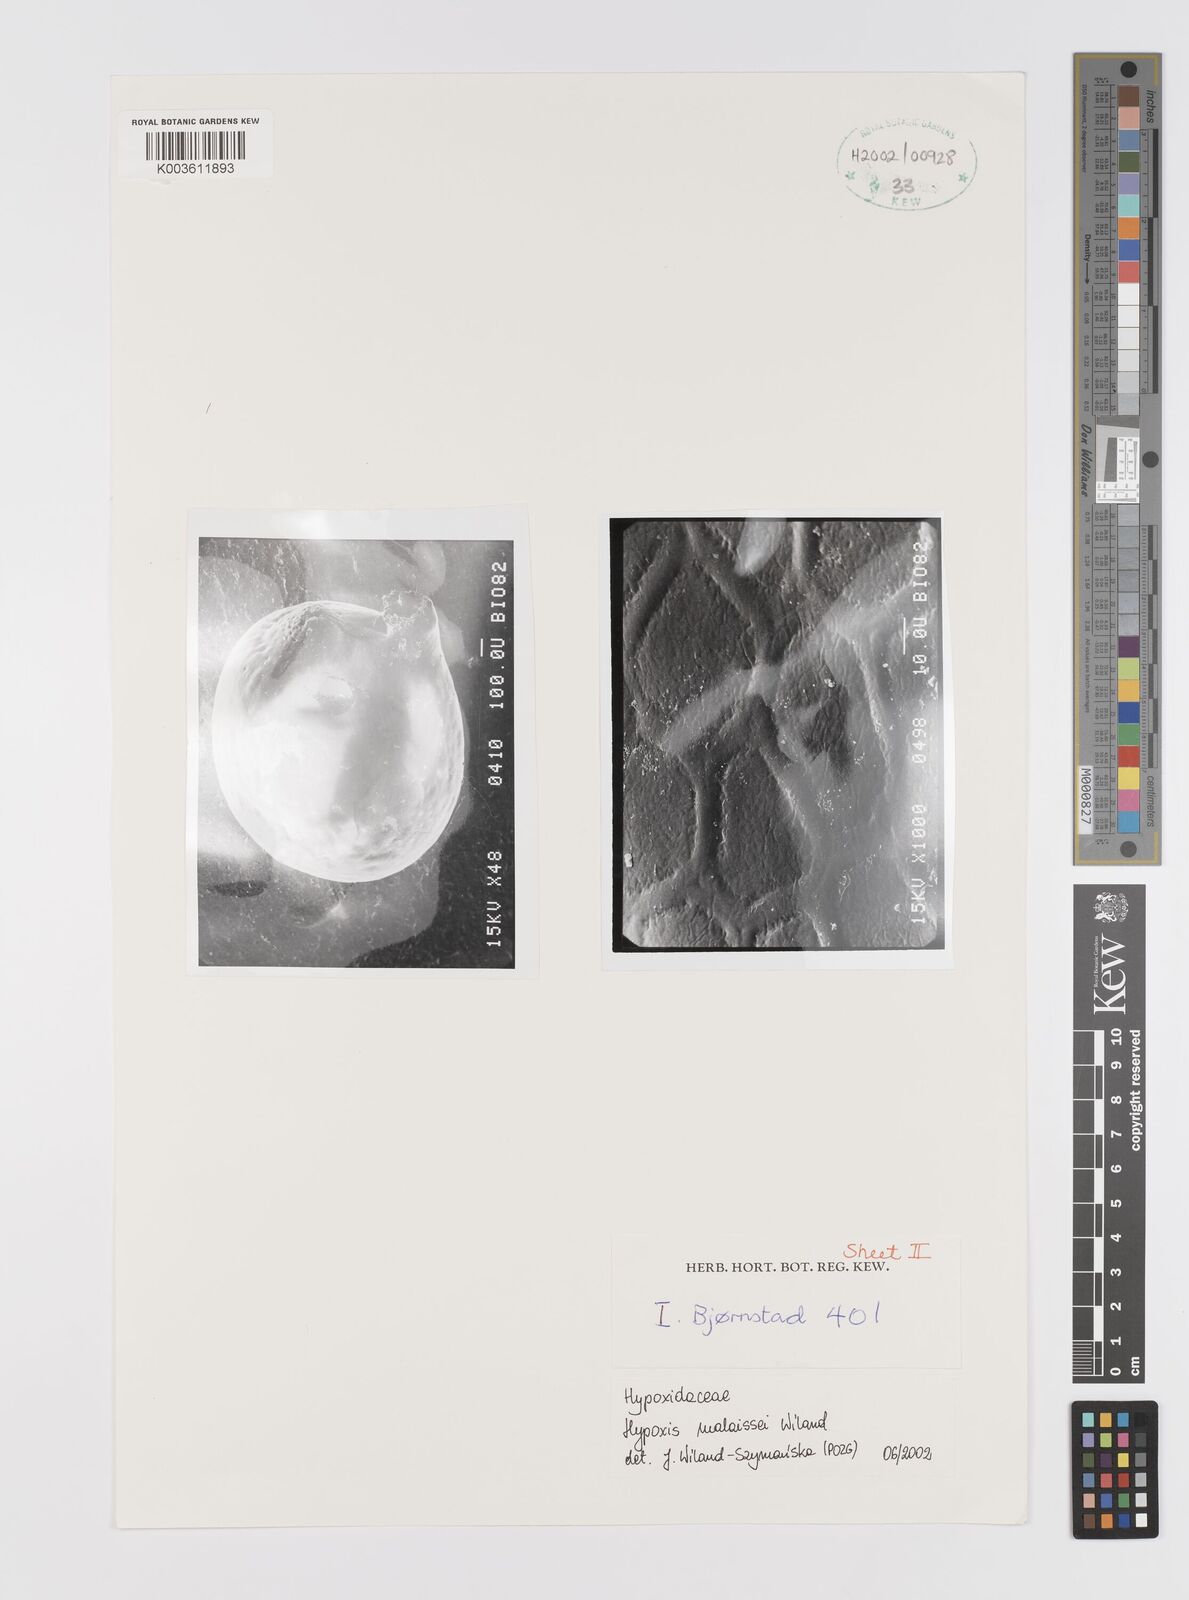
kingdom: Plantae
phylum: Tracheophyta
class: Liliopsida
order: Asparagales
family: Hypoxidaceae
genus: Hypoxis
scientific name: Hypoxis malaissei
